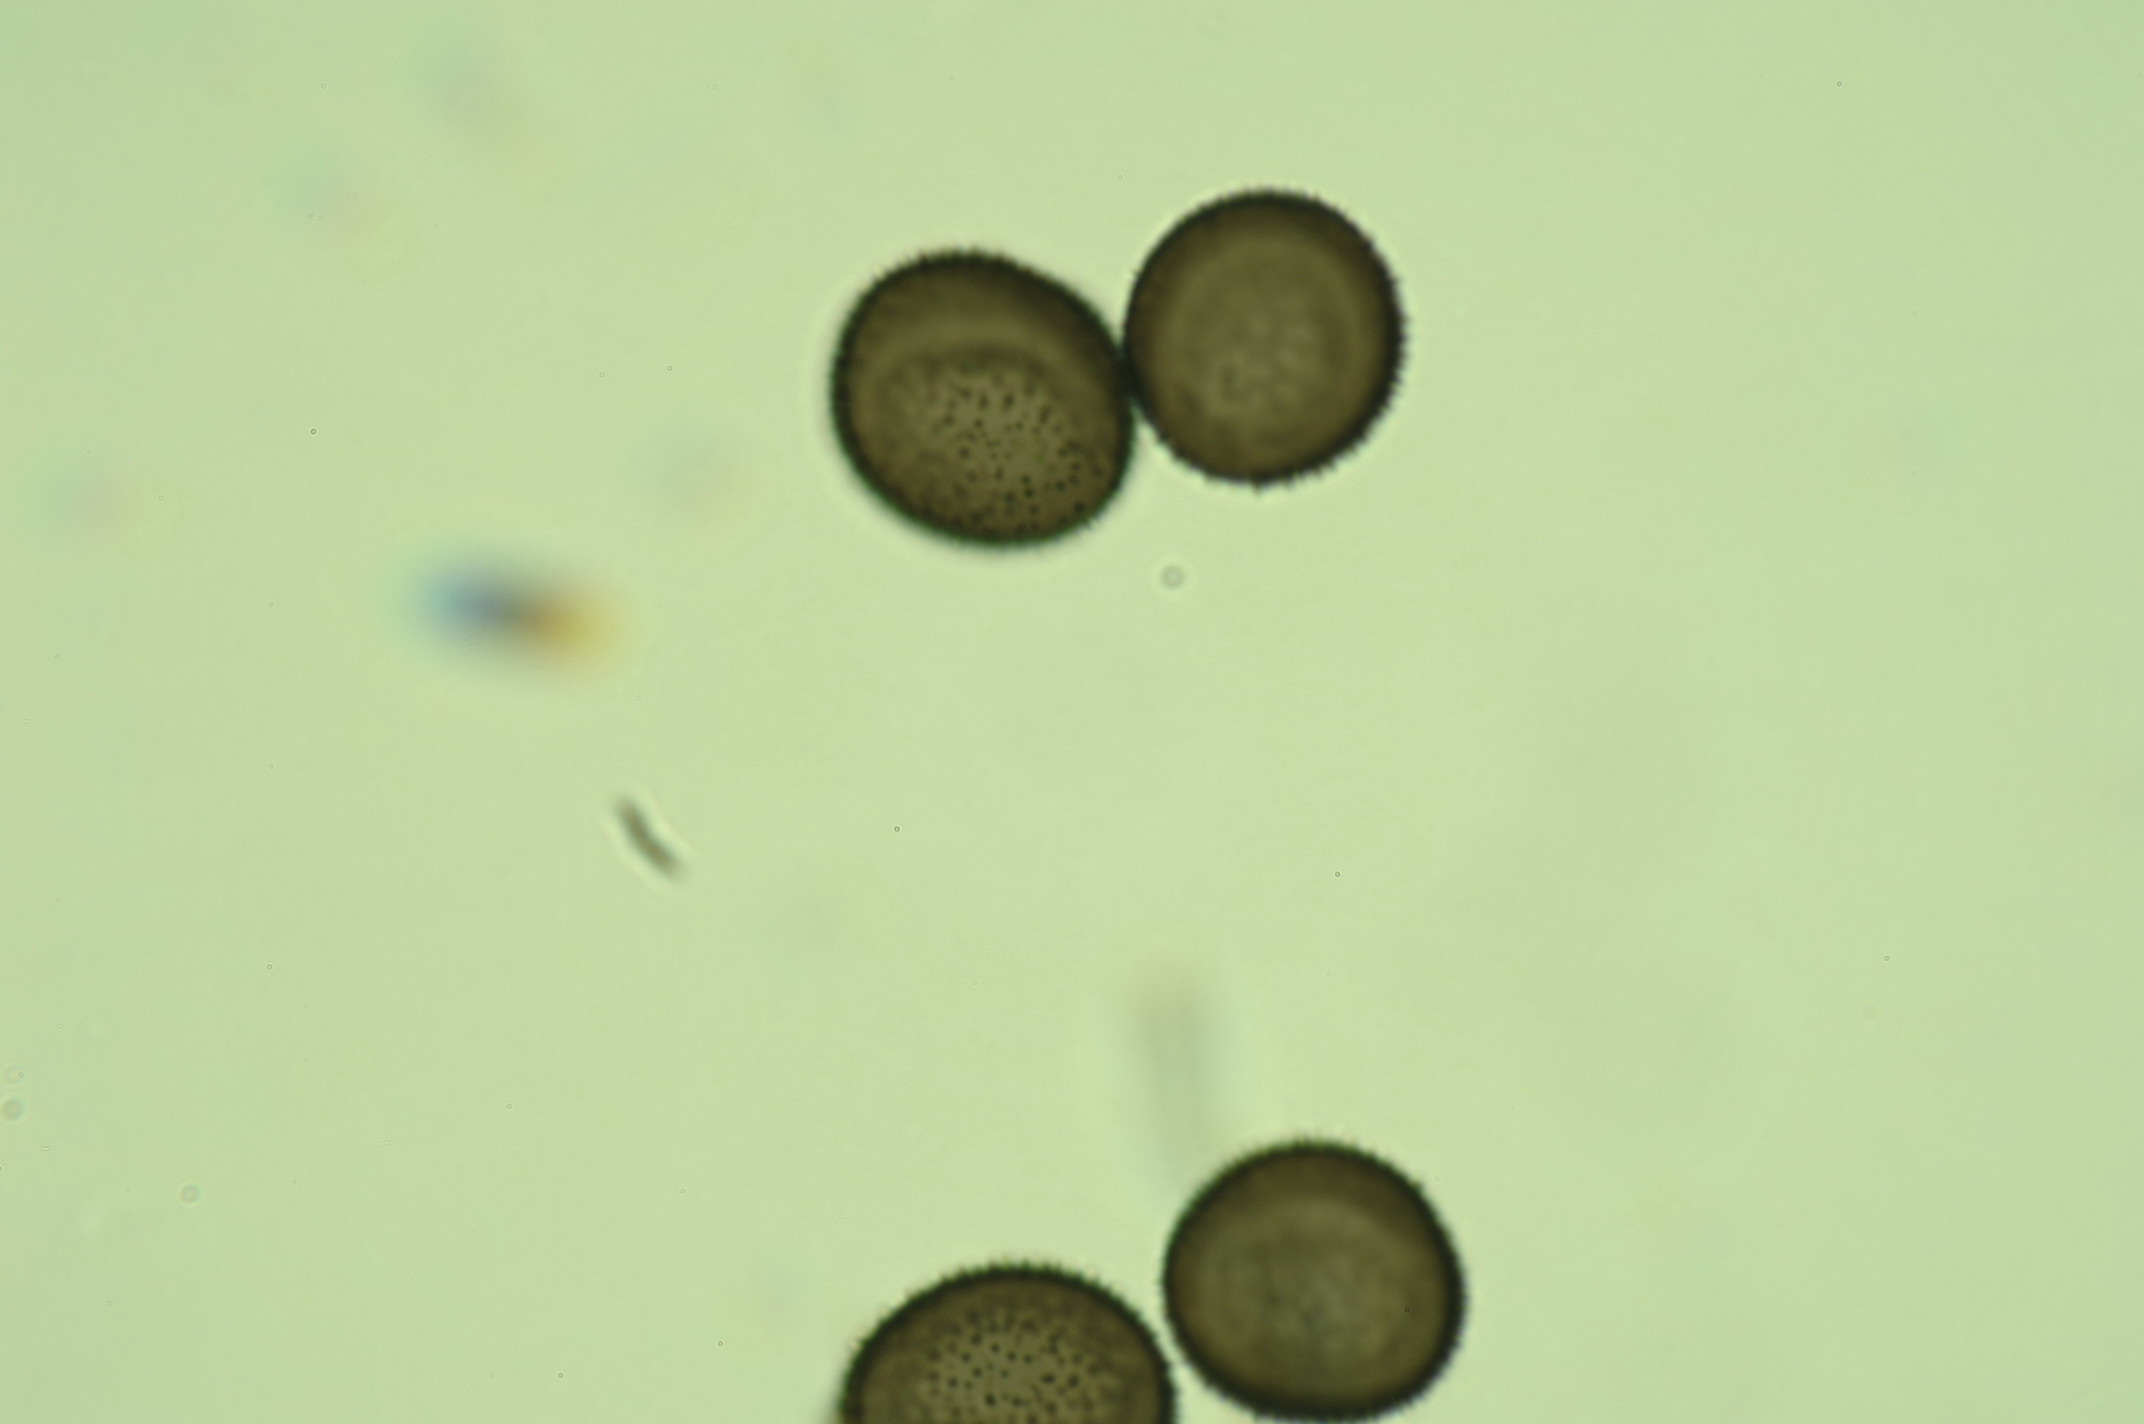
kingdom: Protozoa
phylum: Mycetozoa
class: Myxomycetes
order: Stemonitidales
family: Stemonitidaceae
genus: Lamproderma
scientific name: Lamproderma granulosum
